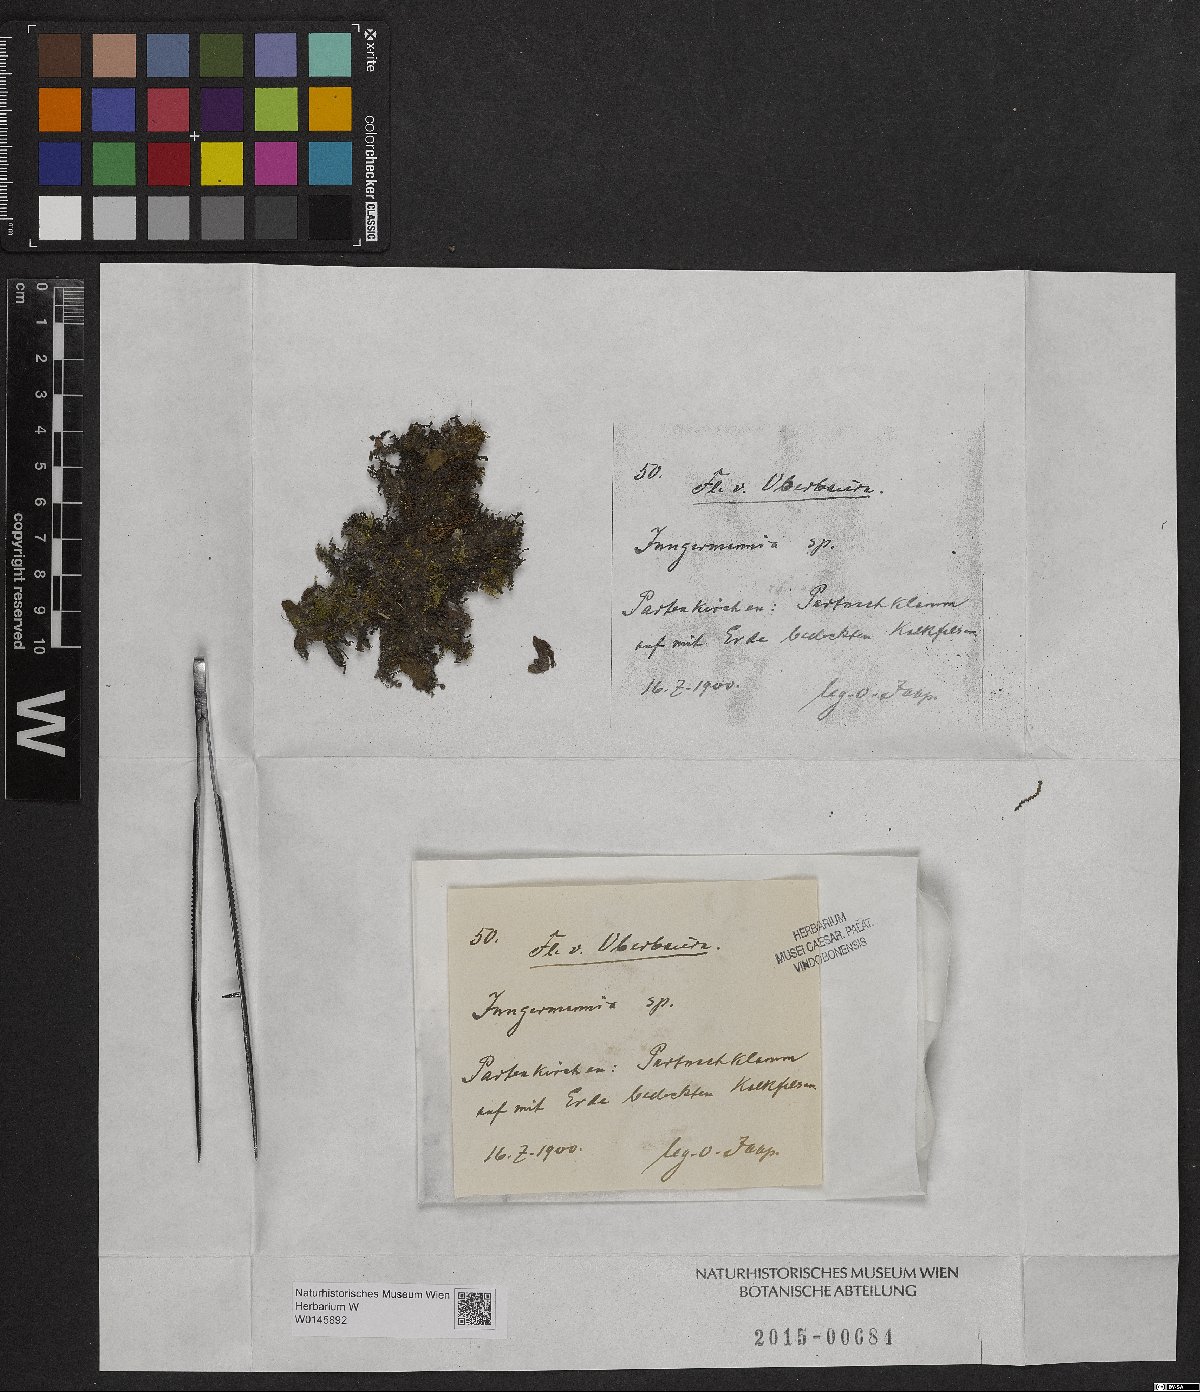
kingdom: Plantae
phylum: Marchantiophyta
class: Jungermanniopsida
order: Jungermanniales
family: Jungermanniaceae
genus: Jungermannia
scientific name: Jungermannia
